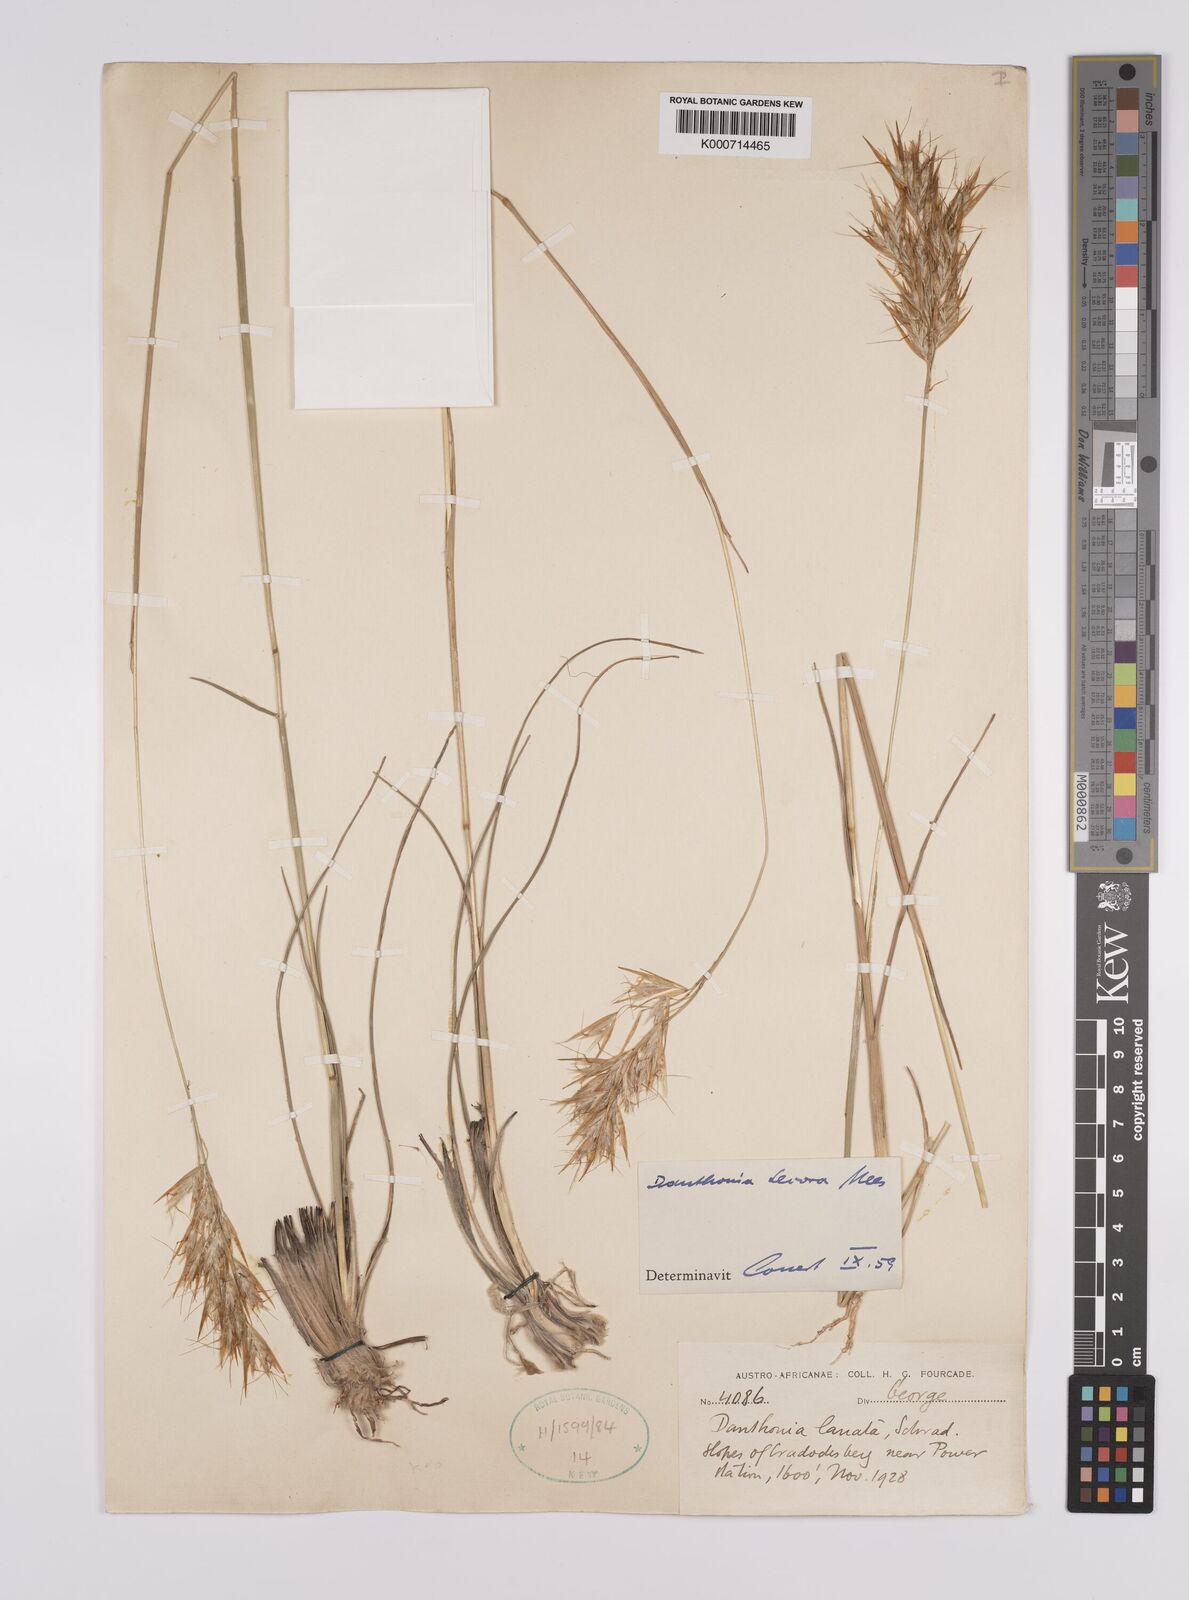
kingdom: Plantae
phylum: Tracheophyta
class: Liliopsida
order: Poales
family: Poaceae
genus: Rytidosperma
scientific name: Rytidosperma
